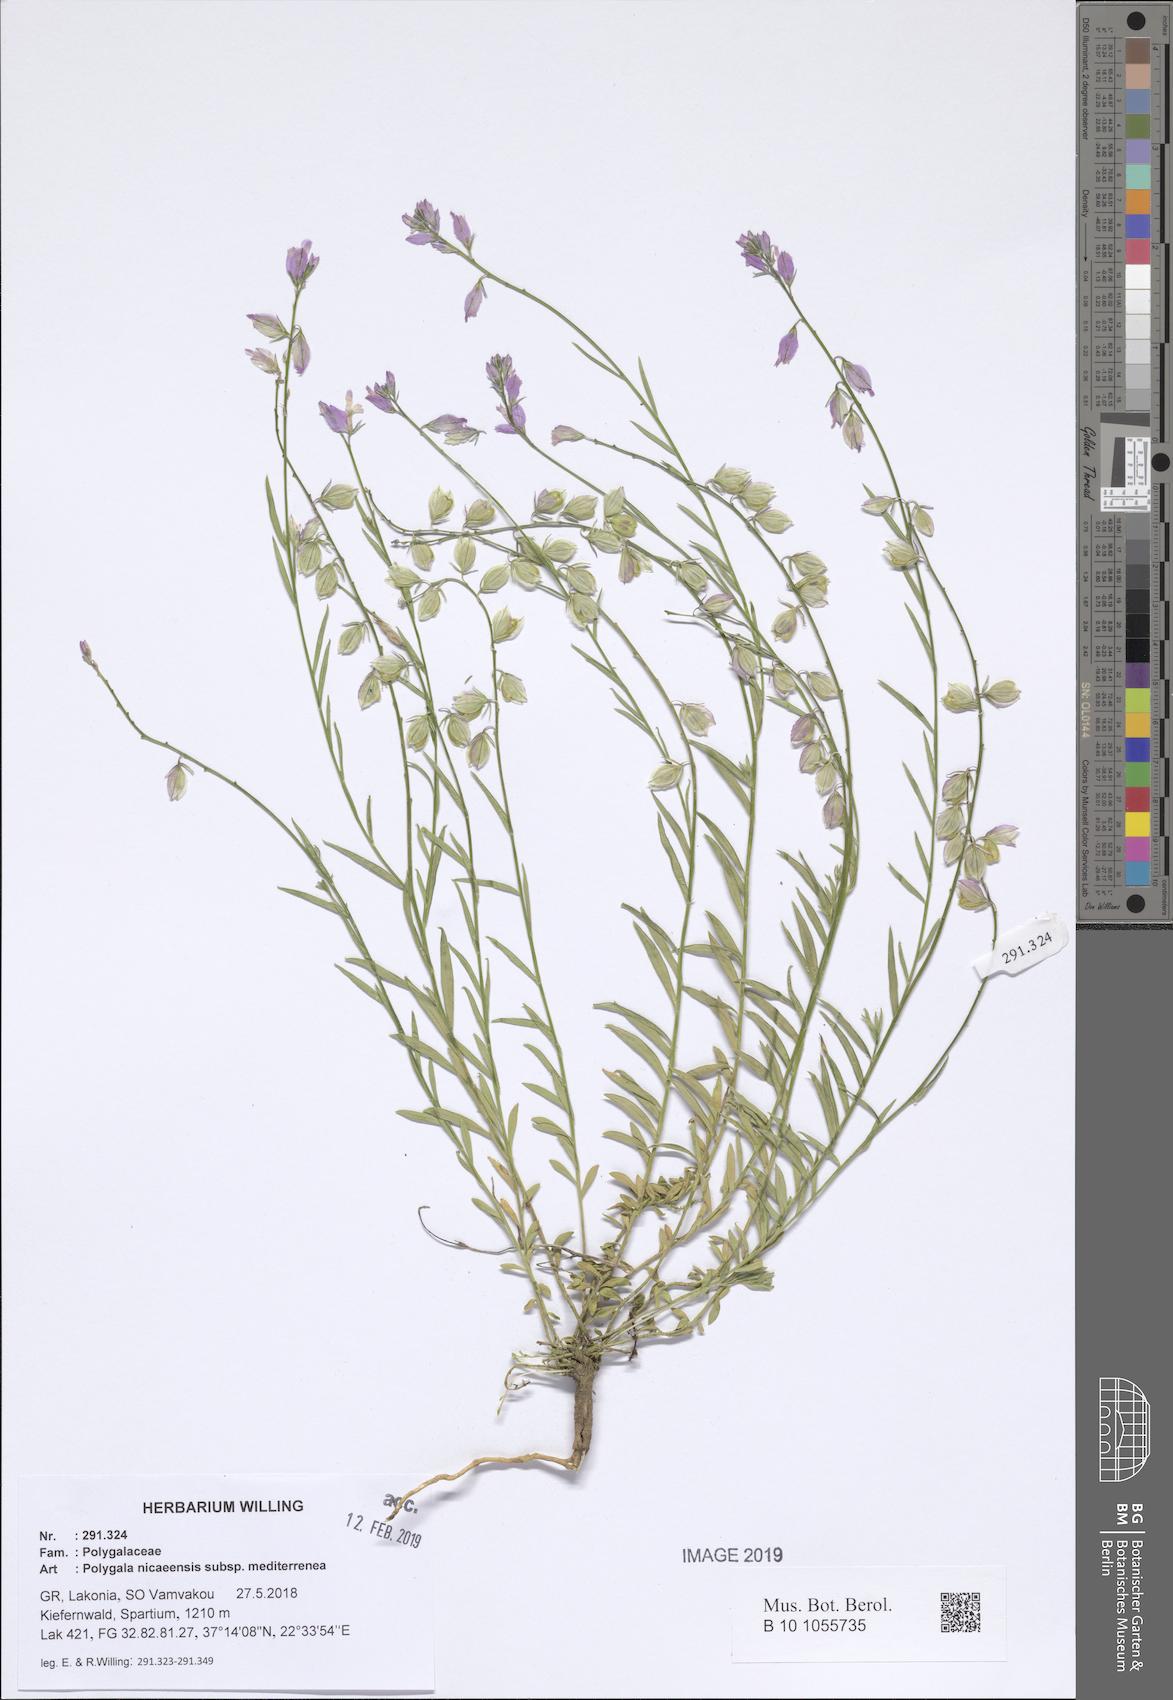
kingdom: Plantae
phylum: Tracheophyta
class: Magnoliopsida
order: Fabales
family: Polygalaceae
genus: Polygala
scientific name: Polygala nicaeensis
